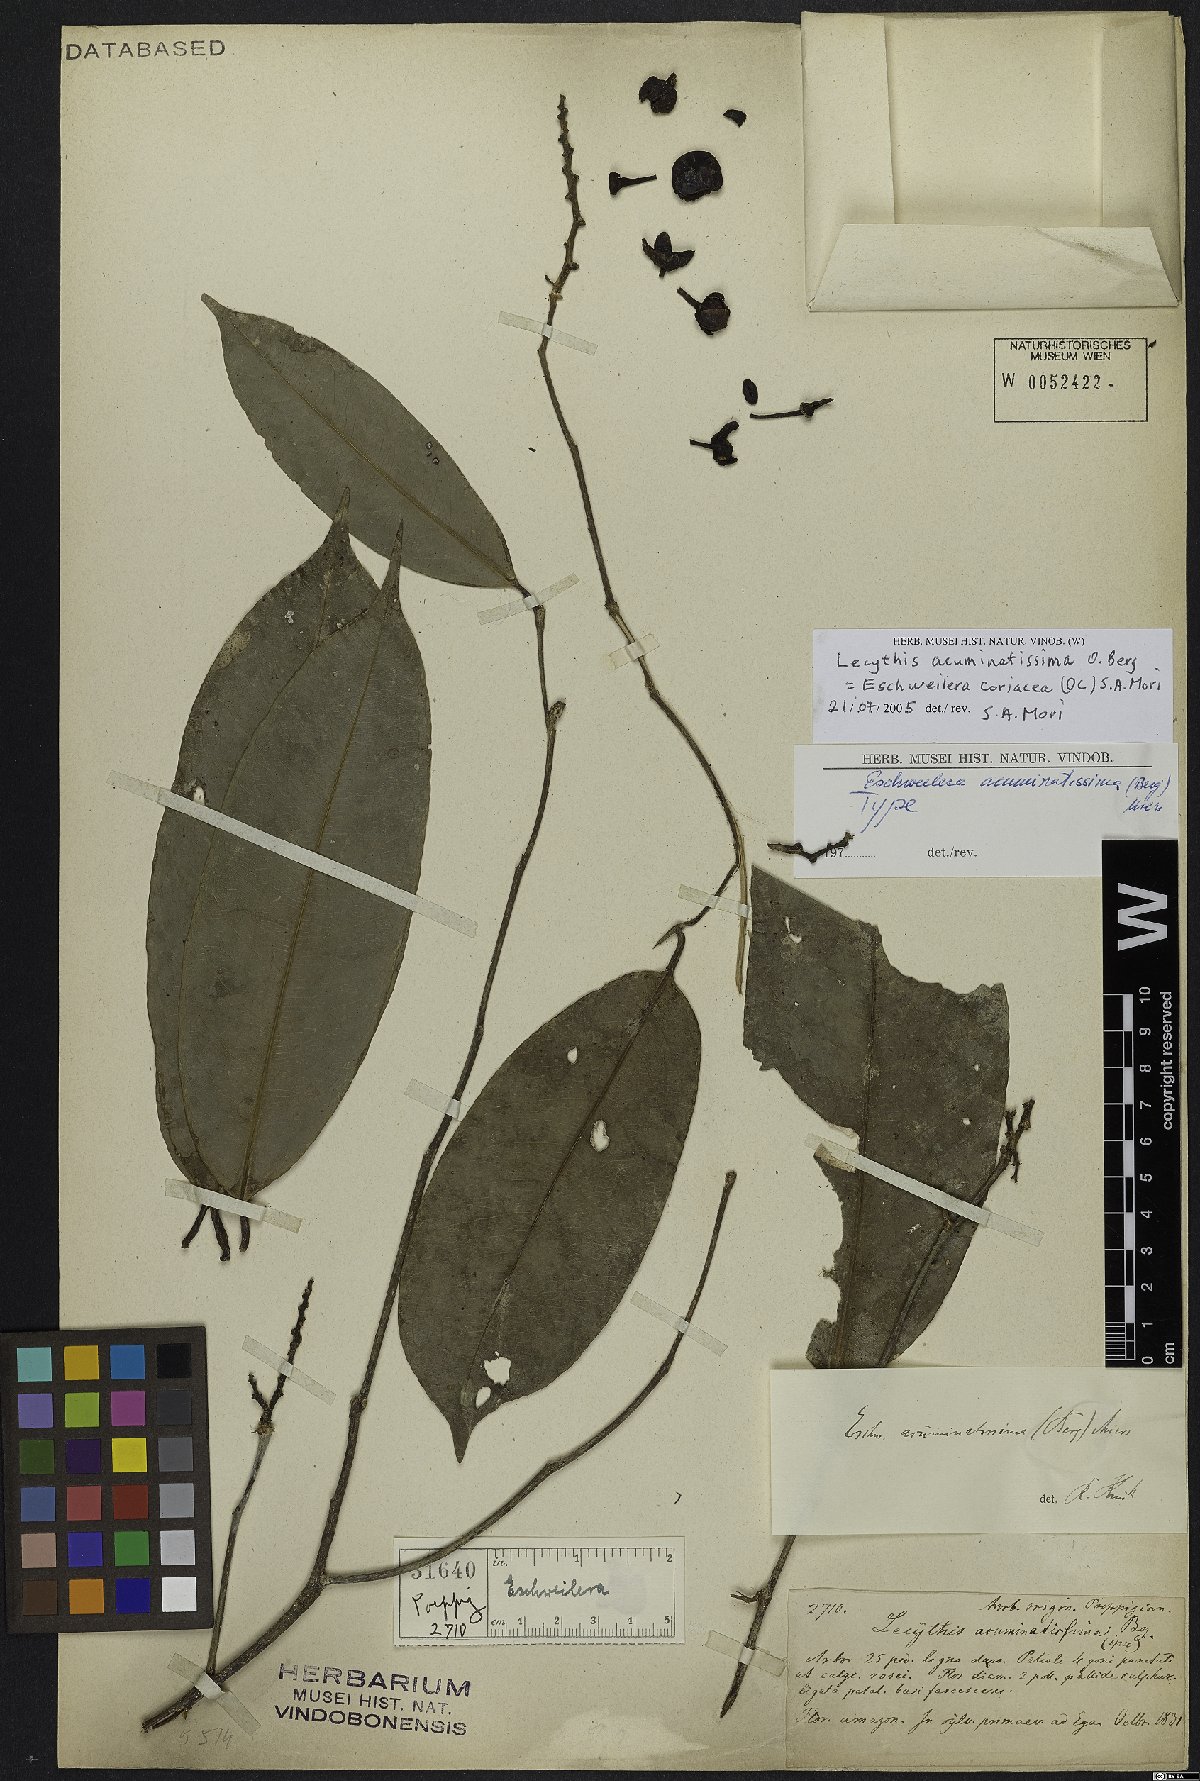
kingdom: Plantae
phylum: Tracheophyta
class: Magnoliopsida
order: Ericales
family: Lecythidaceae
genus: Eschweilera
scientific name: Eschweilera coriacea
